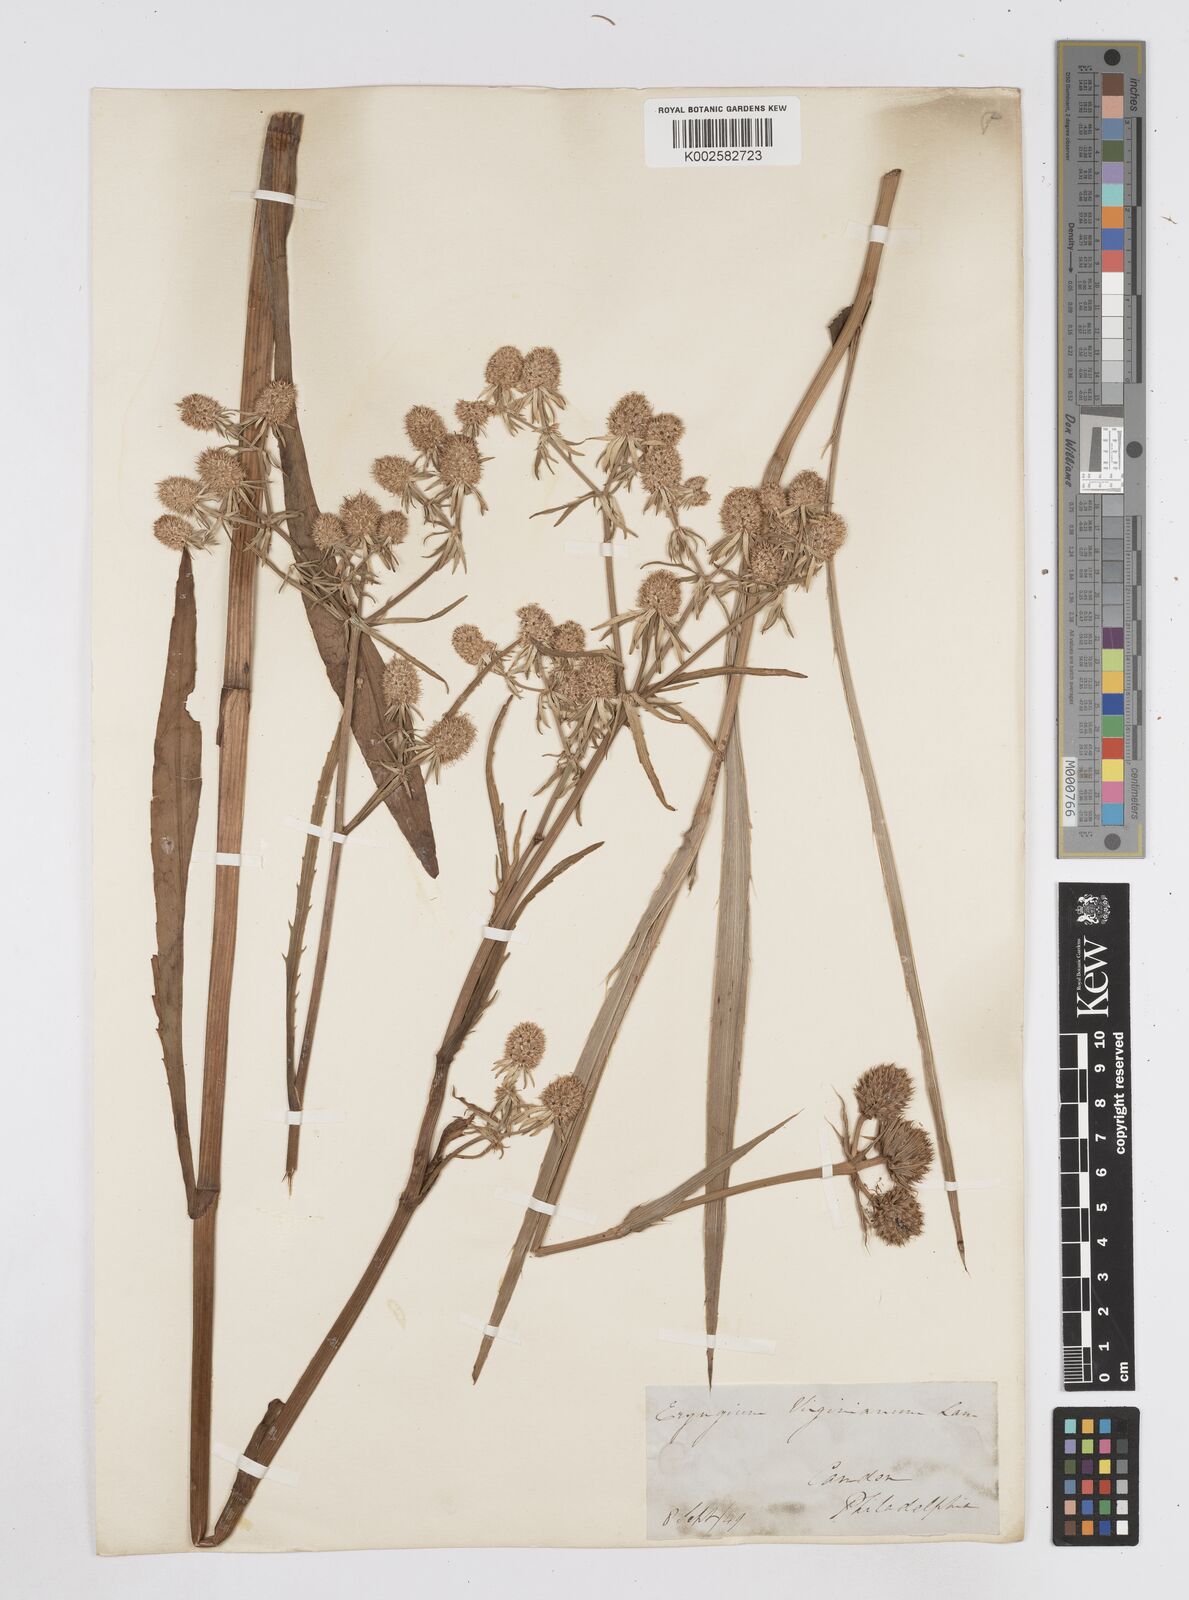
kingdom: Plantae
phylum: Tracheophyta
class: Magnoliopsida
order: Apiales
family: Apiaceae
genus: Eryngium
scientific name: Eryngium aquaticum
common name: Water eryngo
